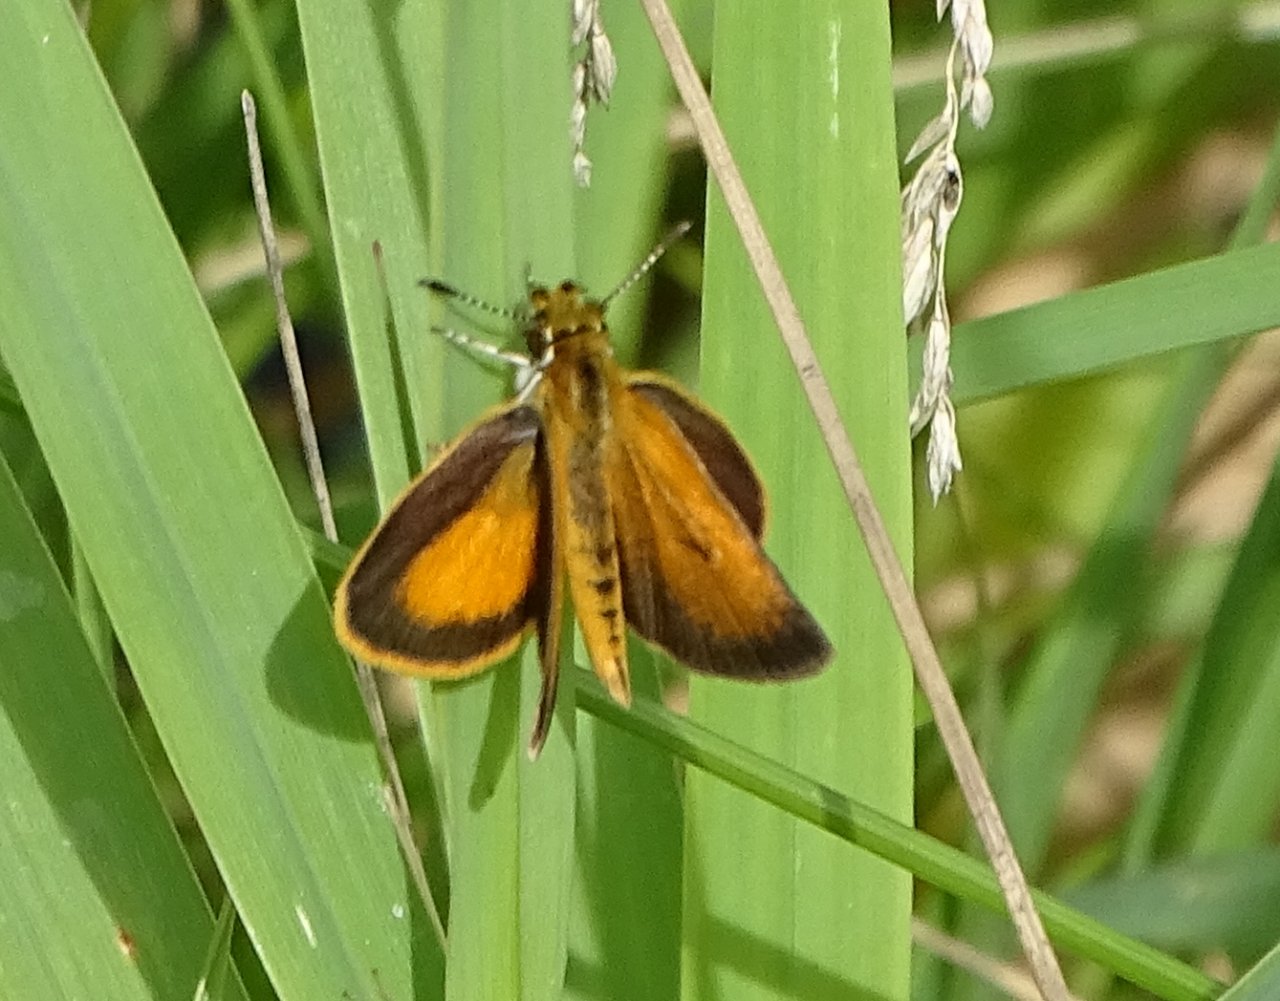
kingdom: Animalia
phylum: Arthropoda
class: Insecta
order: Lepidoptera
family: Hesperiidae
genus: Ancyloxypha
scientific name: Ancyloxypha numitor
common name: Least Skipper
